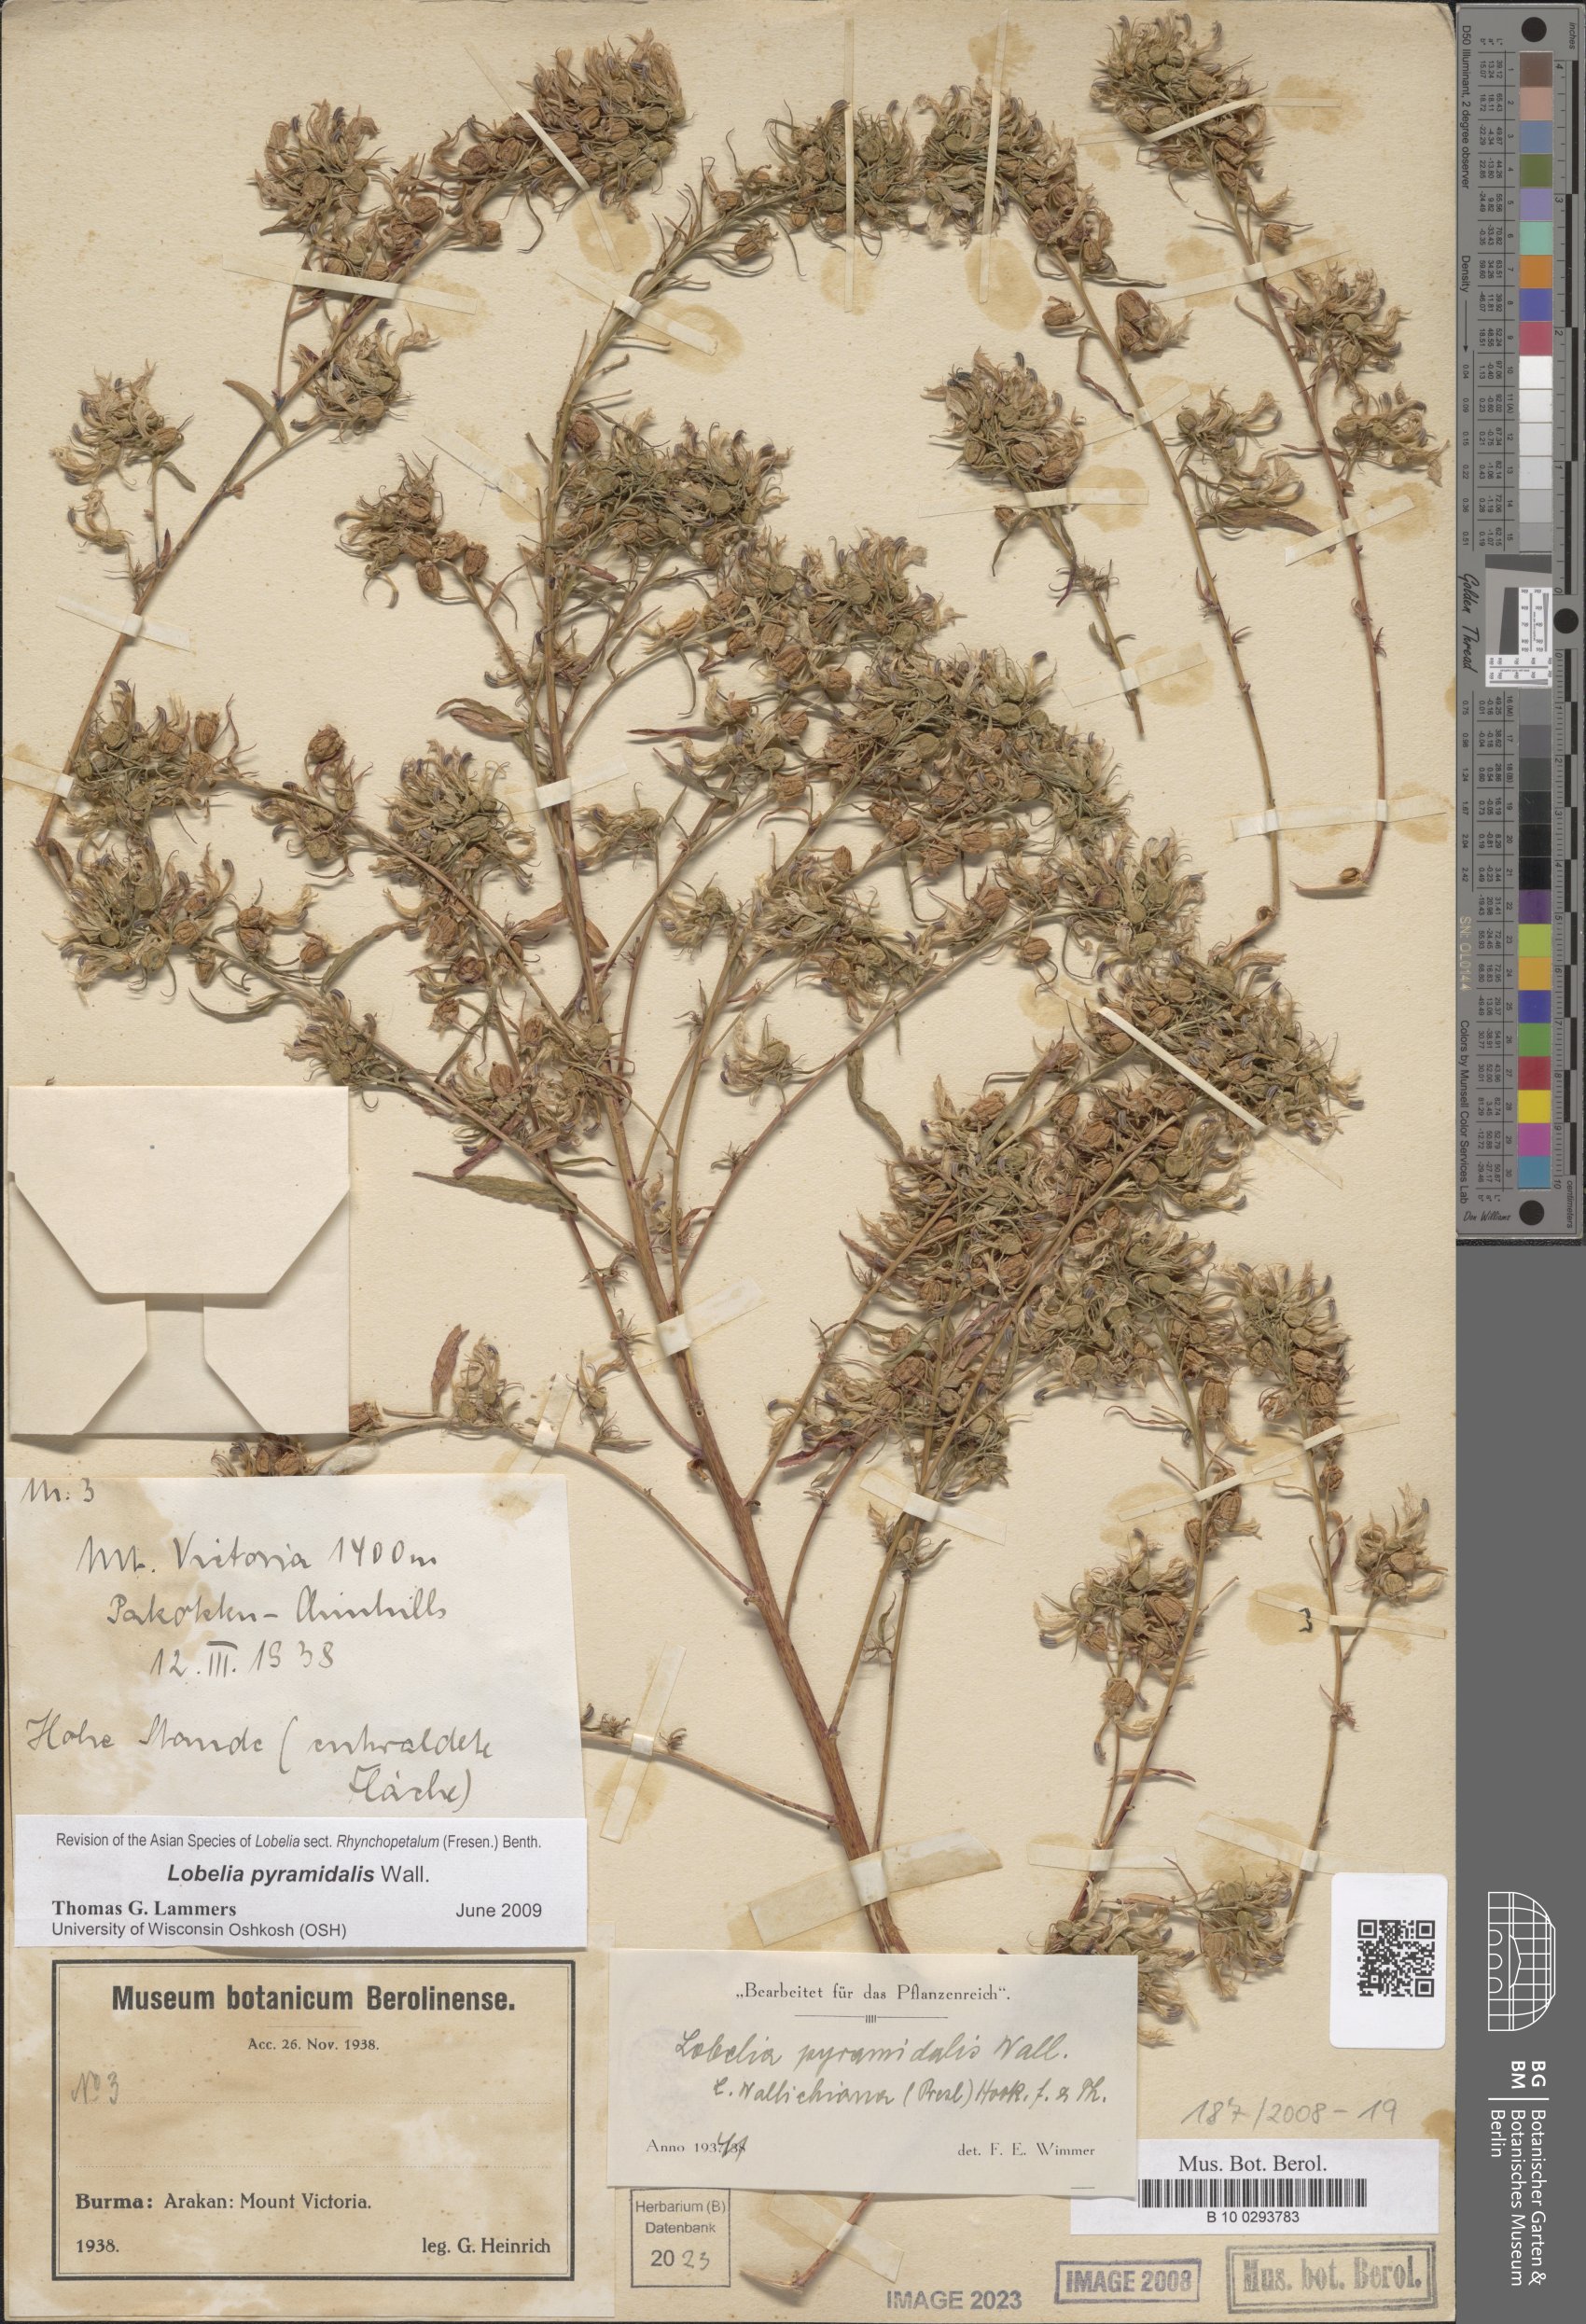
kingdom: Plantae
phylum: Tracheophyta
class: Magnoliopsida
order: Asterales
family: Campanulaceae
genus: Lobelia
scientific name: Lobelia pyramidalis
